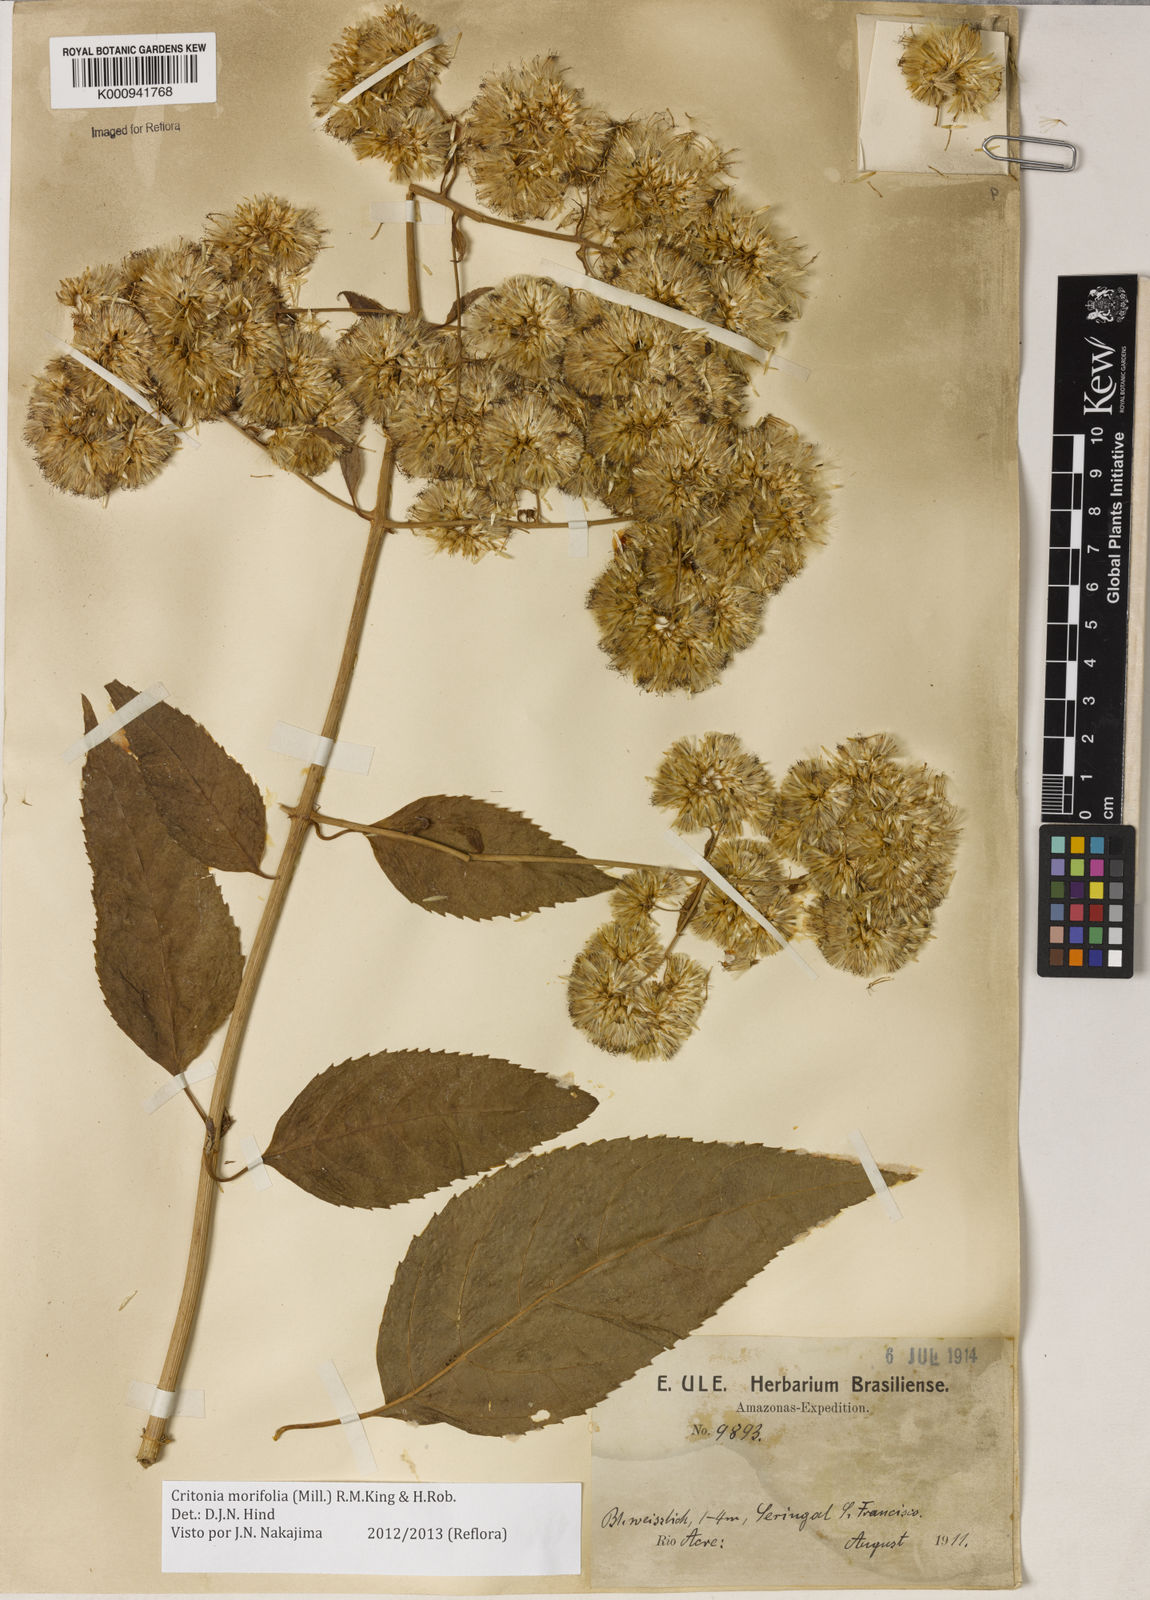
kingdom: Plantae
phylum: Tracheophyta
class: Magnoliopsida
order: Asterales
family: Asteraceae
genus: Critonia
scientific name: Critonia morifolia
